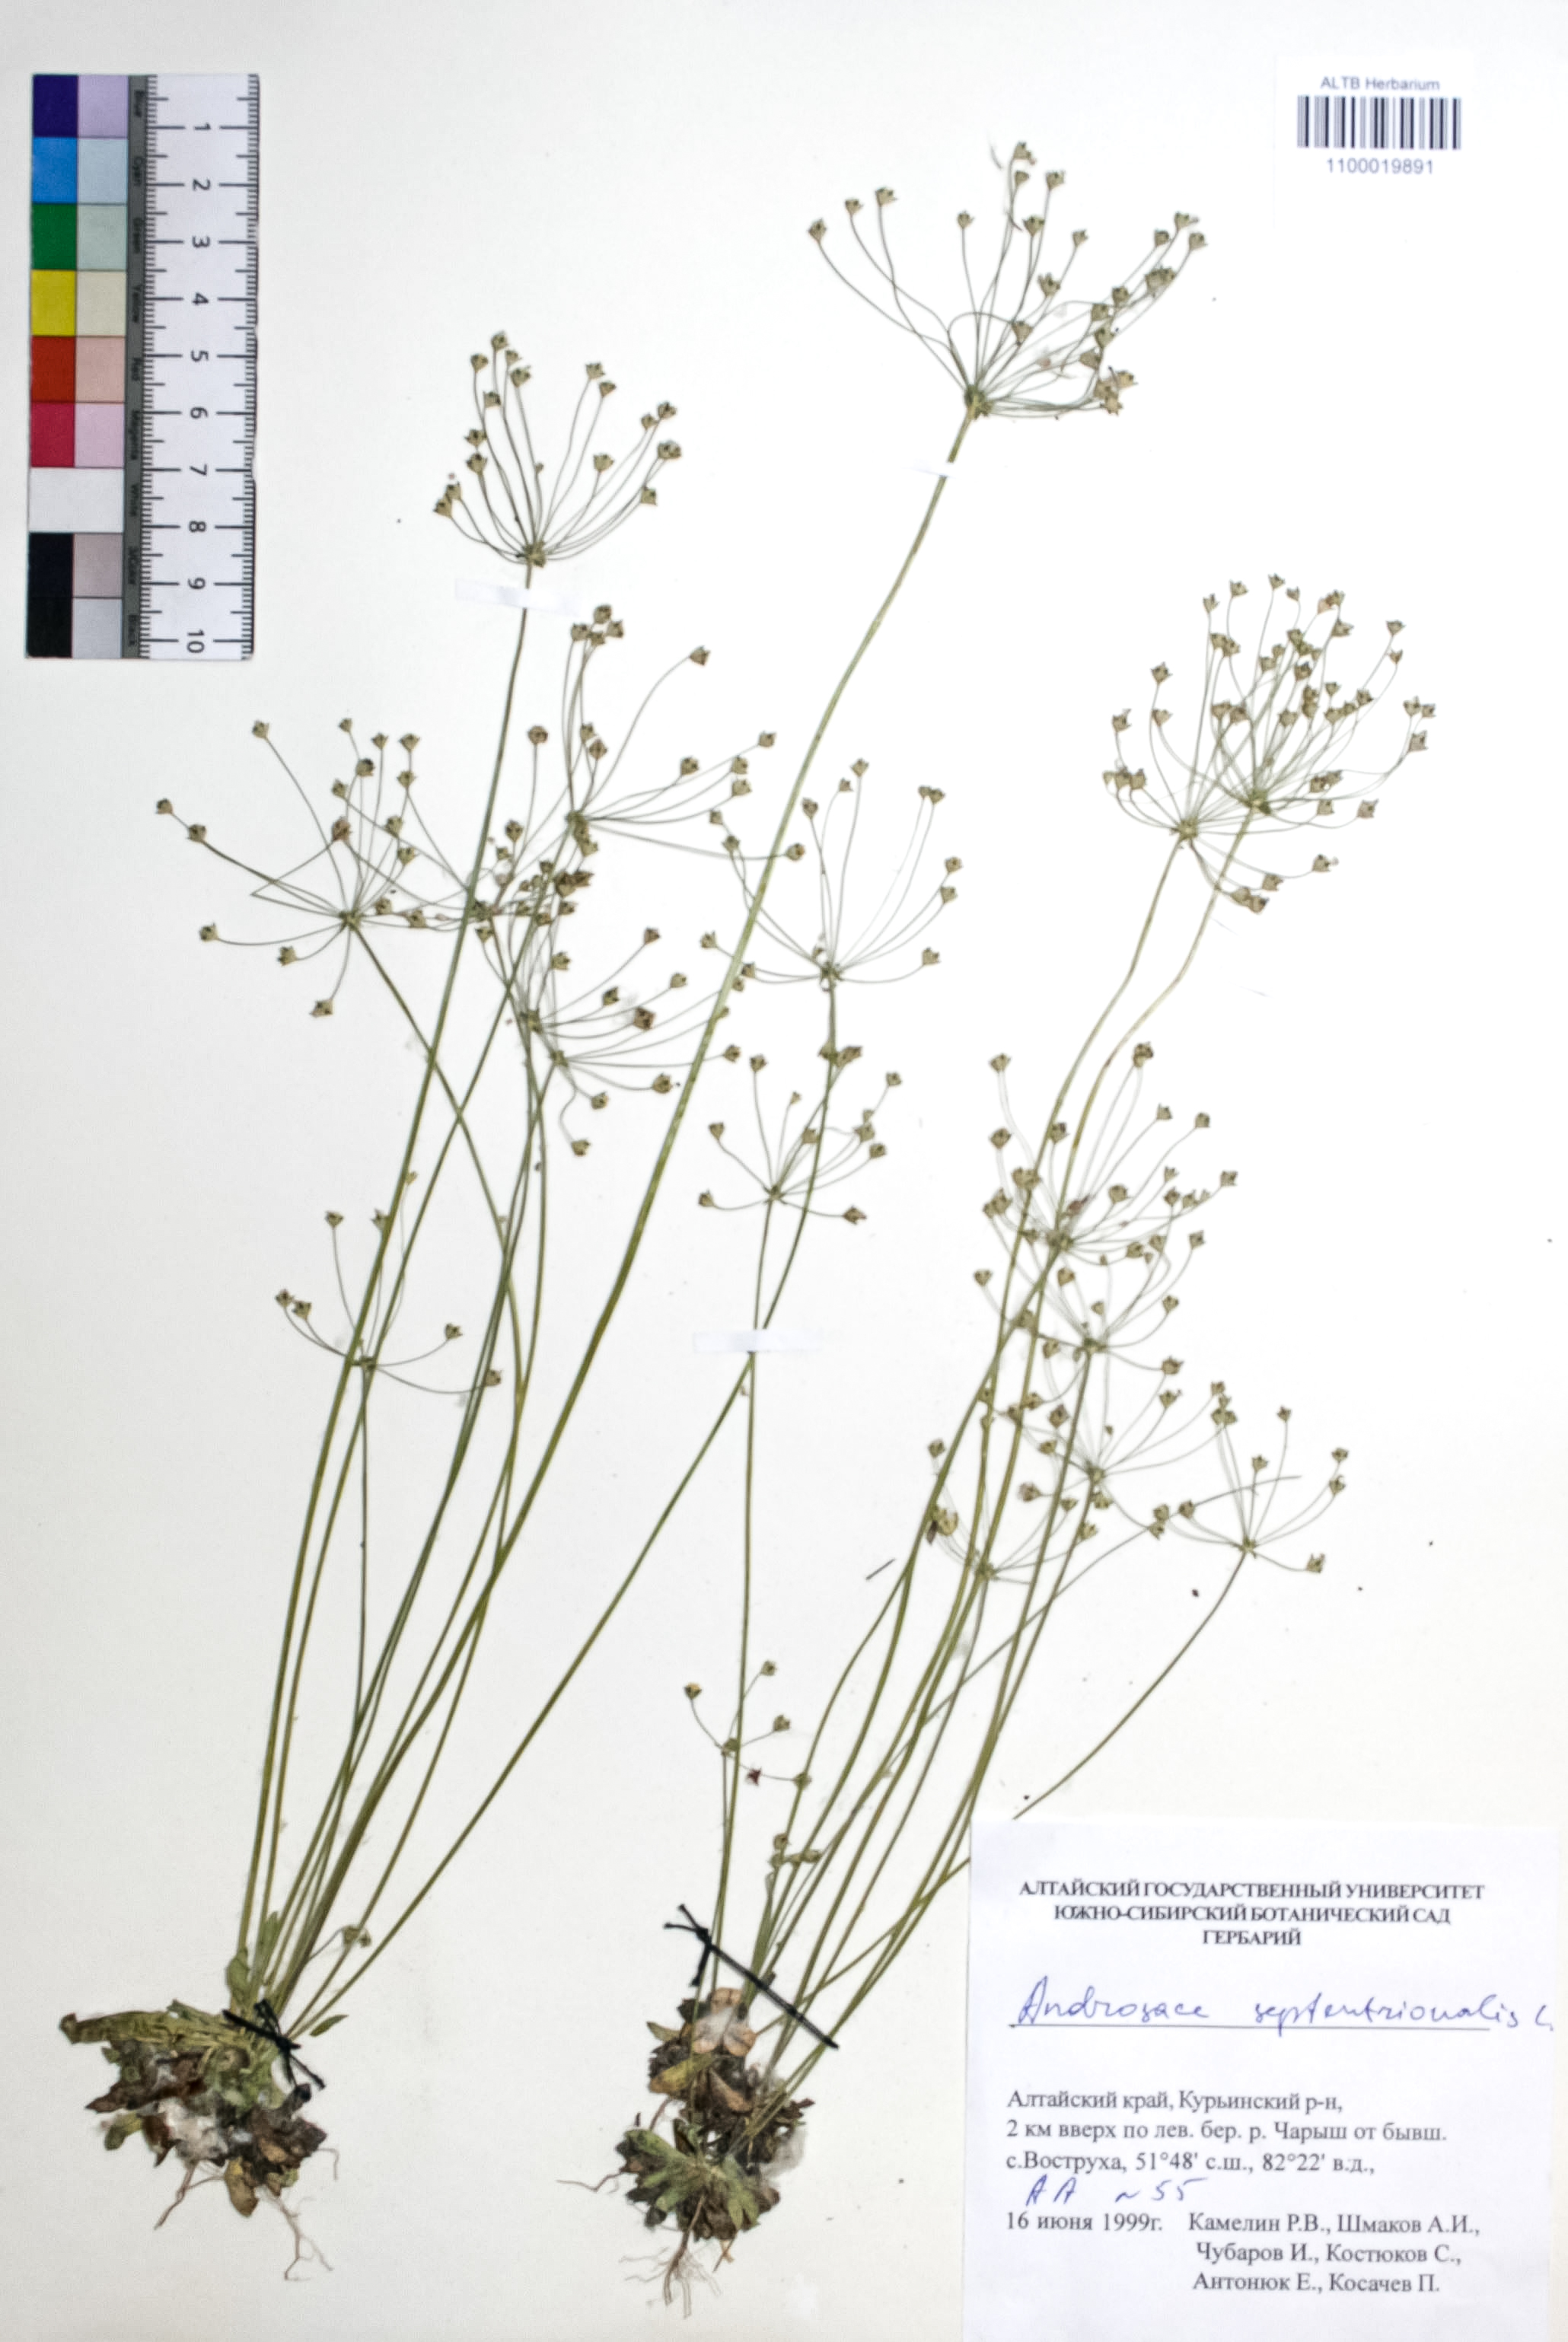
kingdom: Plantae
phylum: Tracheophyta
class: Magnoliopsida
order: Ericales
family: Primulaceae
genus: Androsace
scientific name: Androsace septentrionalis
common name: Hairy northern fairy-candelabra
